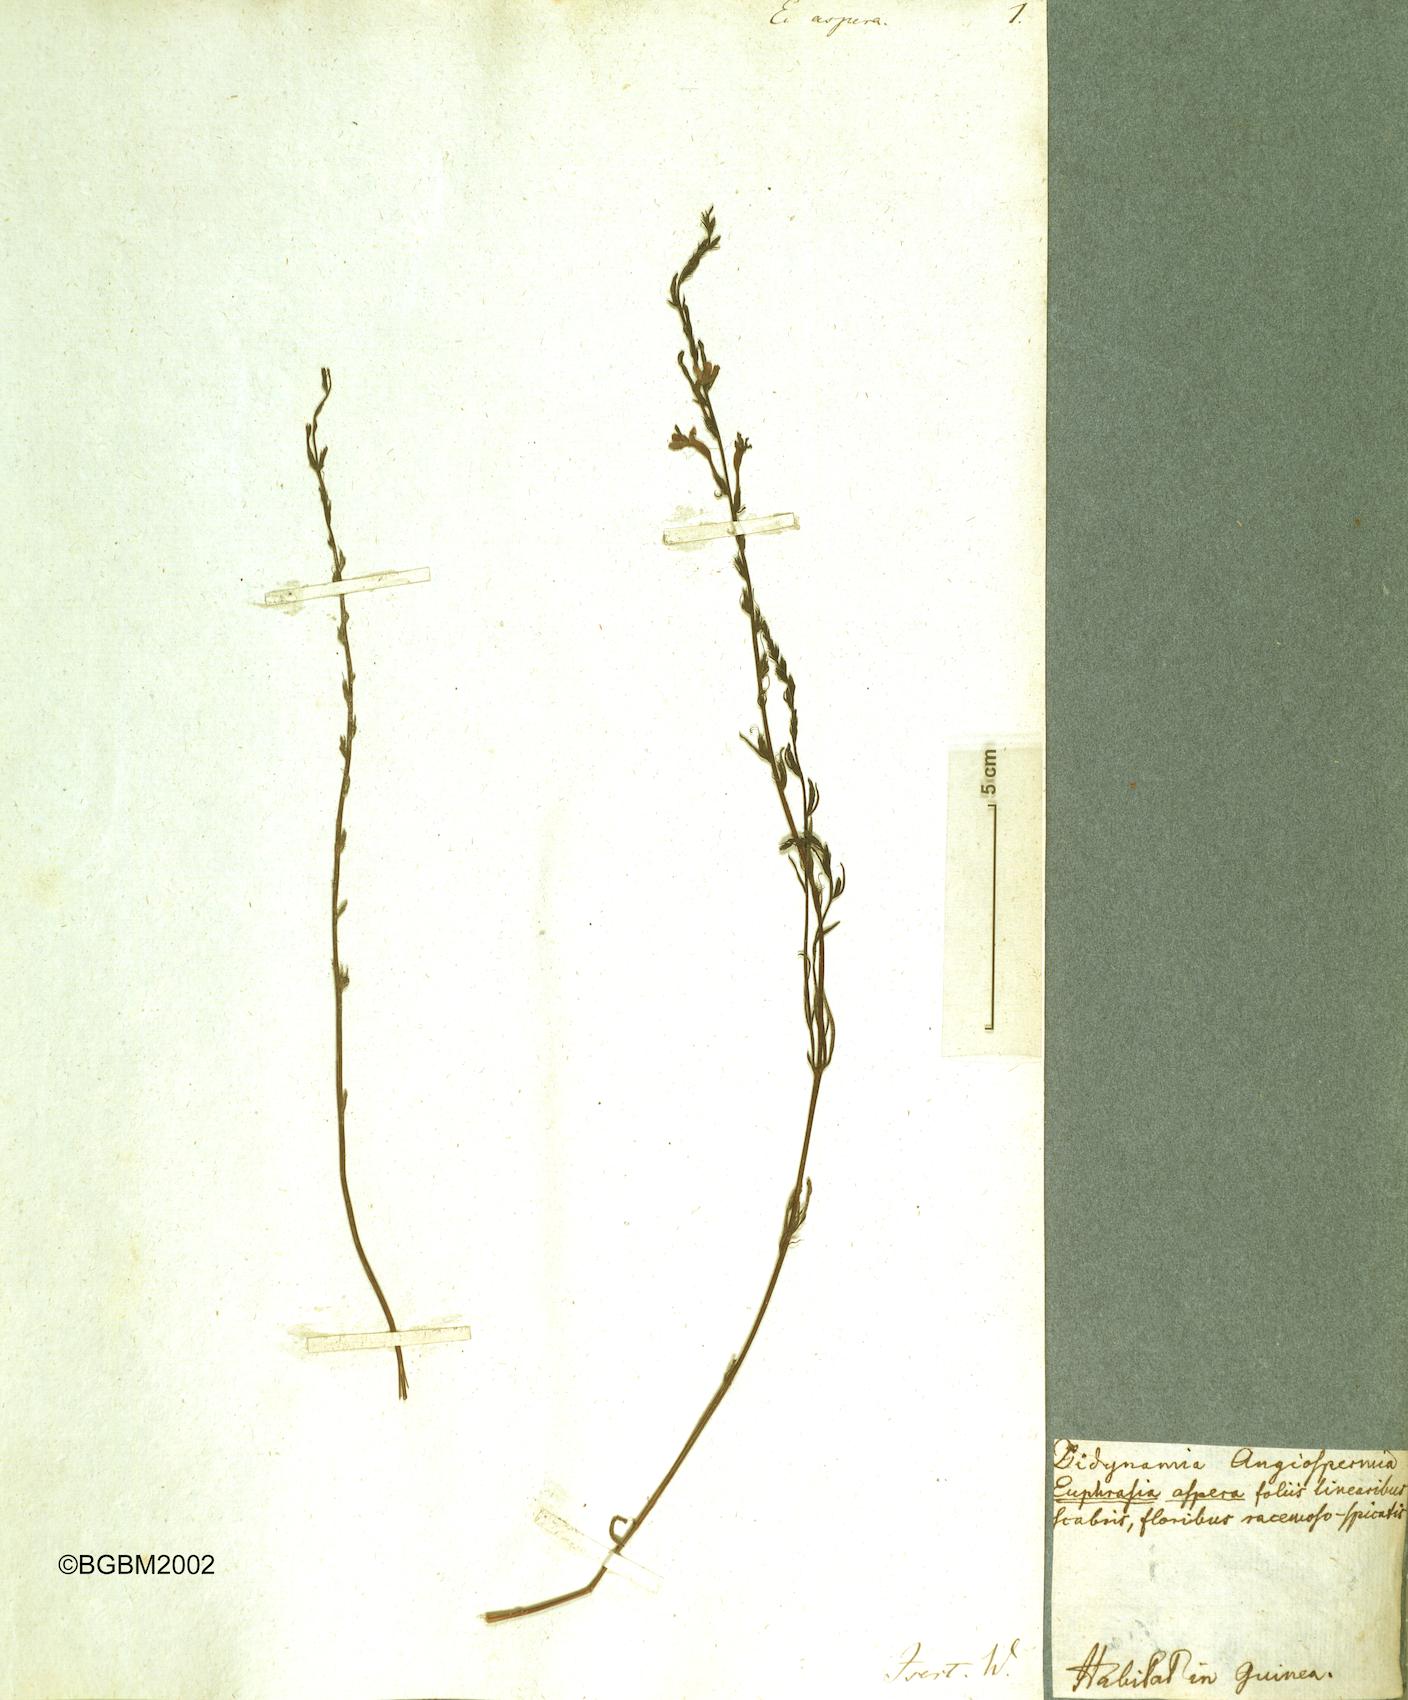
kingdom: Plantae
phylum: Tracheophyta
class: Magnoliopsida
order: Lamiales
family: Orobanchaceae
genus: Striga
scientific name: Striga aspera
